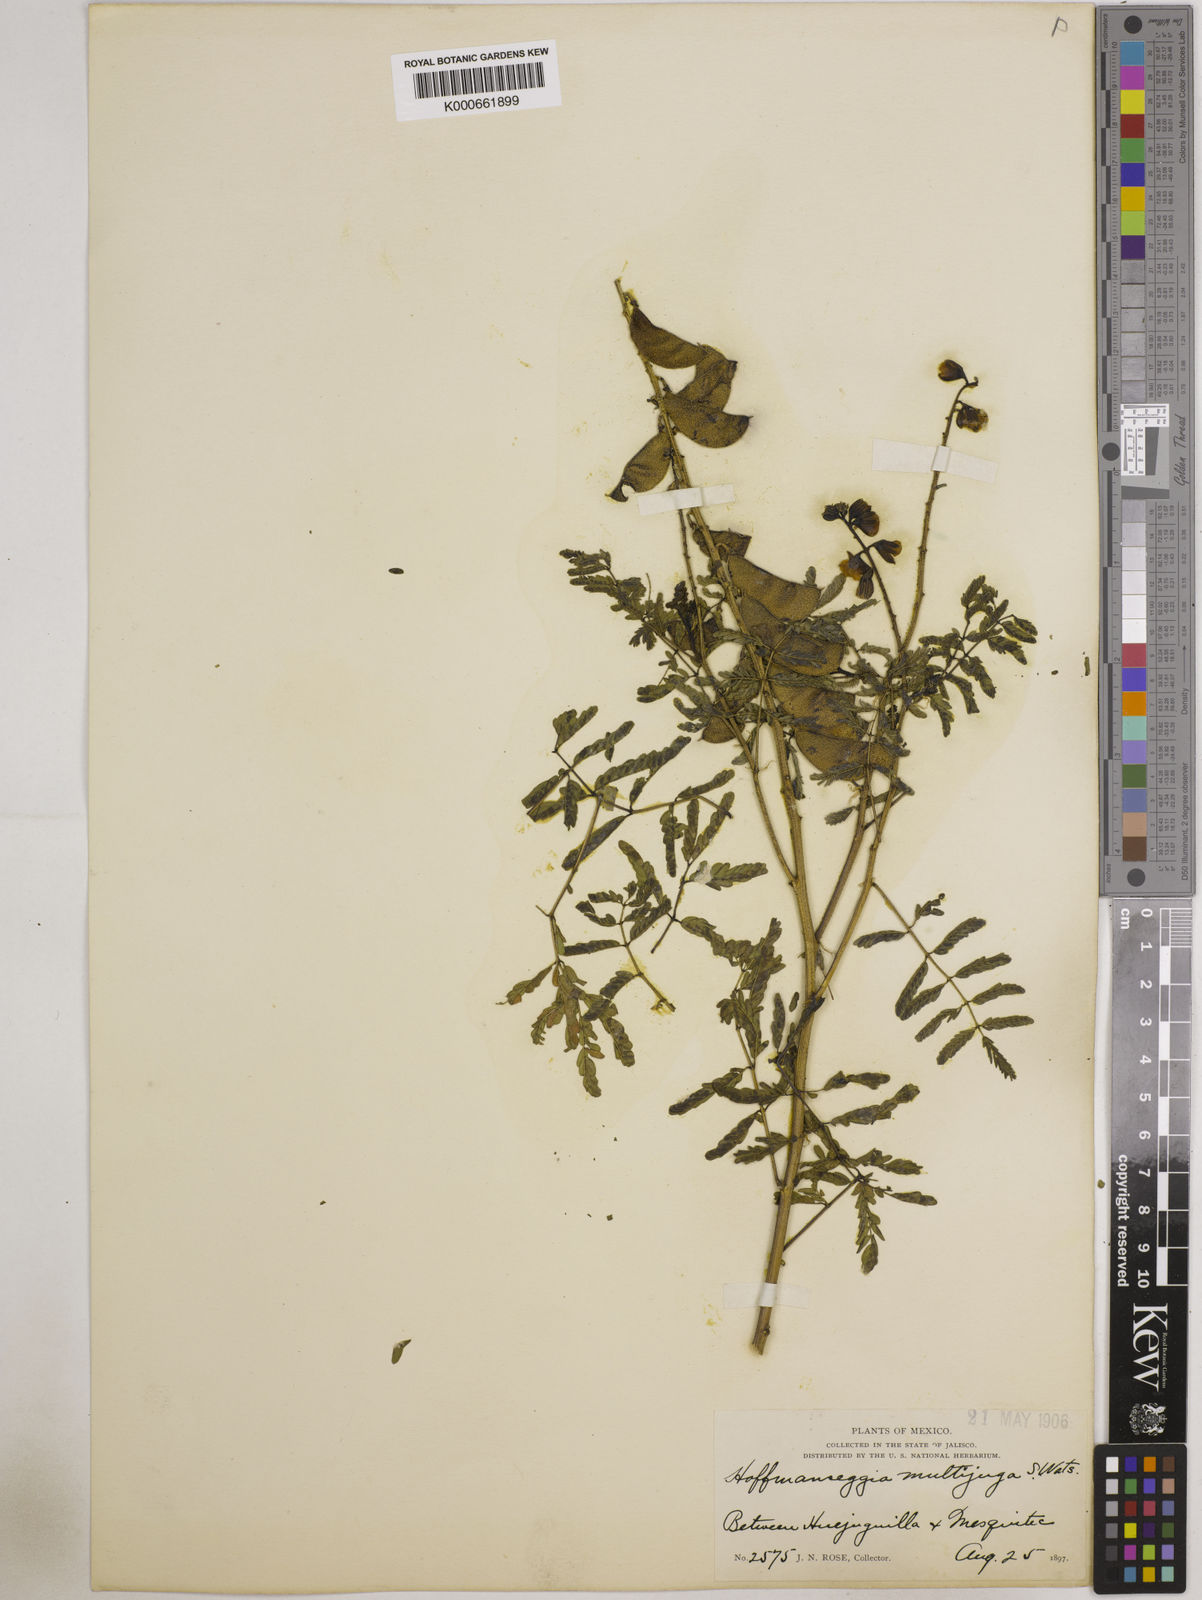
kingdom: Plantae
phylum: Tracheophyta
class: Magnoliopsida
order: Fabales
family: Fabaceae
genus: Pomaria
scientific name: Pomaria multijuga
